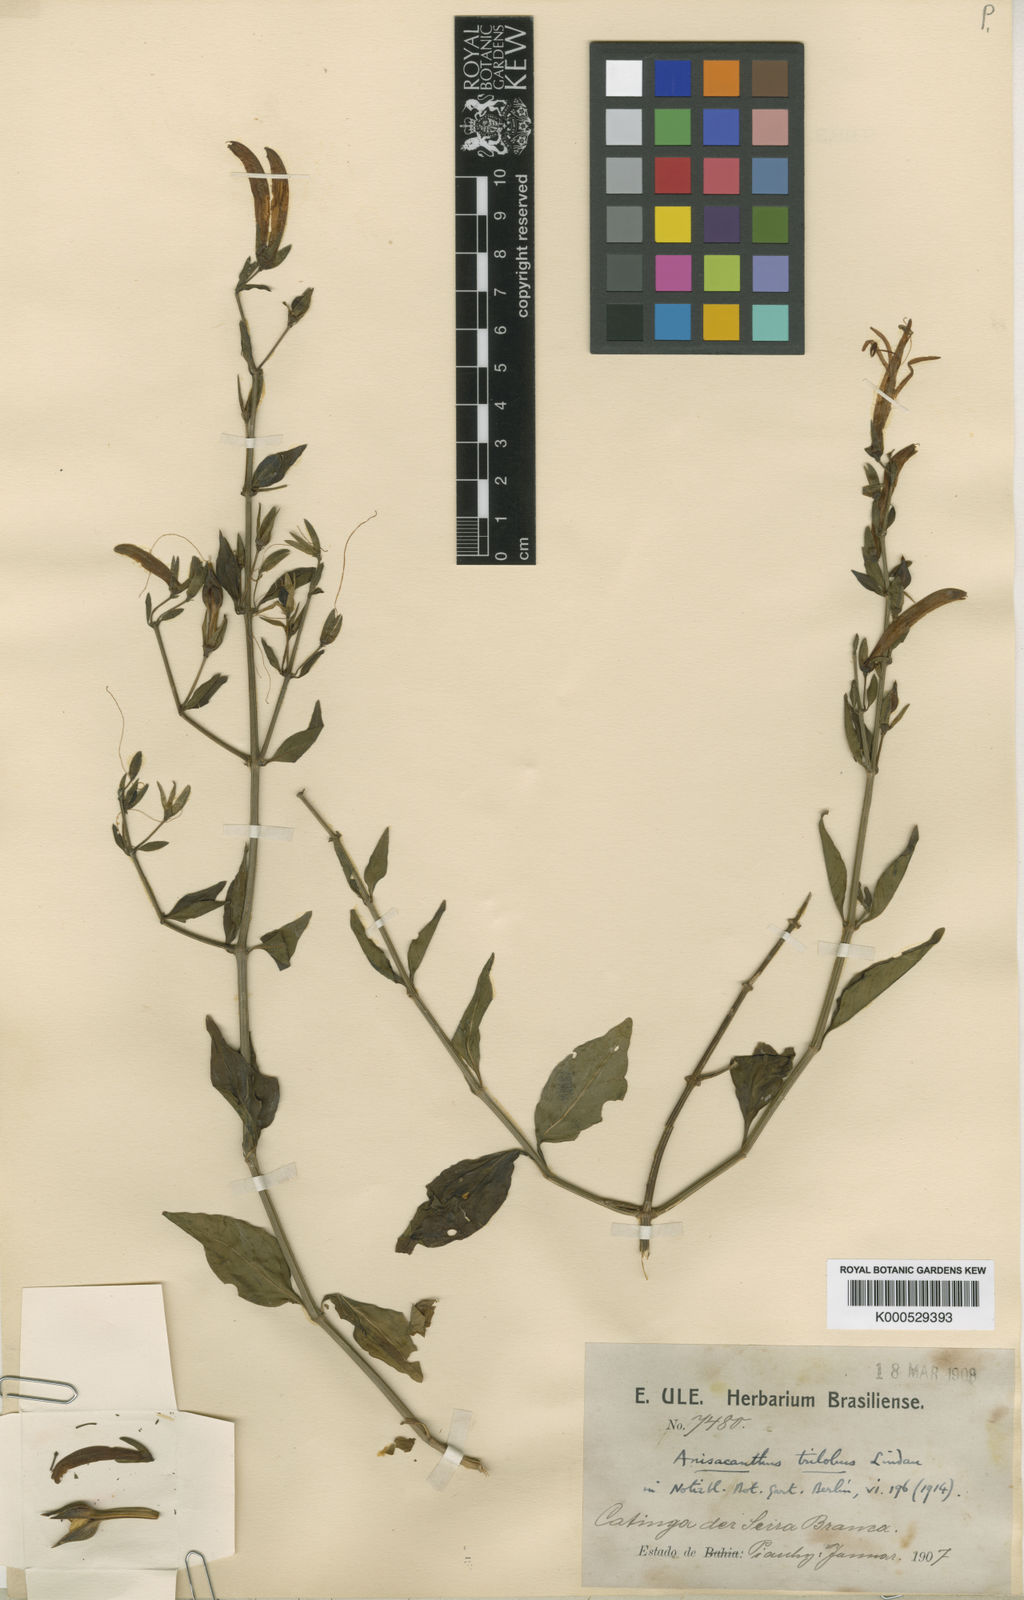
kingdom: Plantae
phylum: Tracheophyta
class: Magnoliopsida
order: Lamiales
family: Acanthaceae
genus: Justicia
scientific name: Justicia triloba
